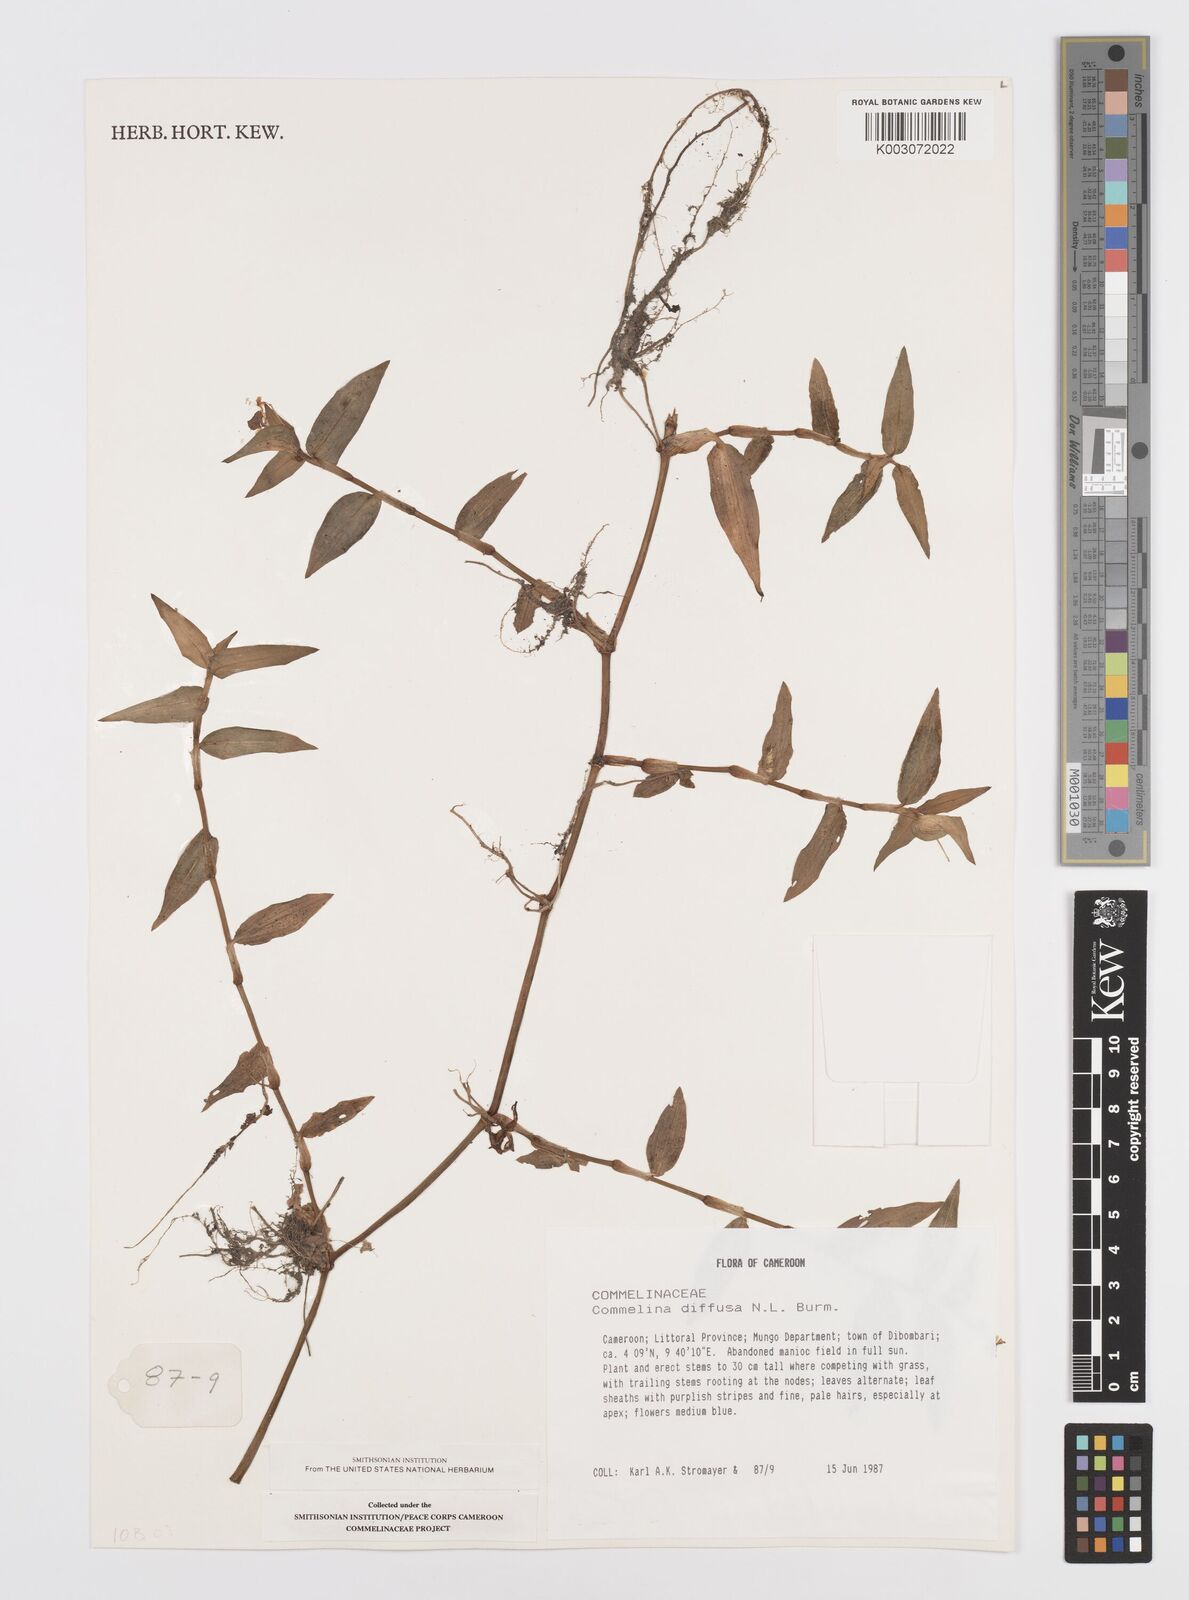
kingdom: Plantae
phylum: Tracheophyta
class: Liliopsida
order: Commelinales
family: Commelinaceae
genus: Commelina
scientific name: Commelina diffusa
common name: Climbing dayflower
